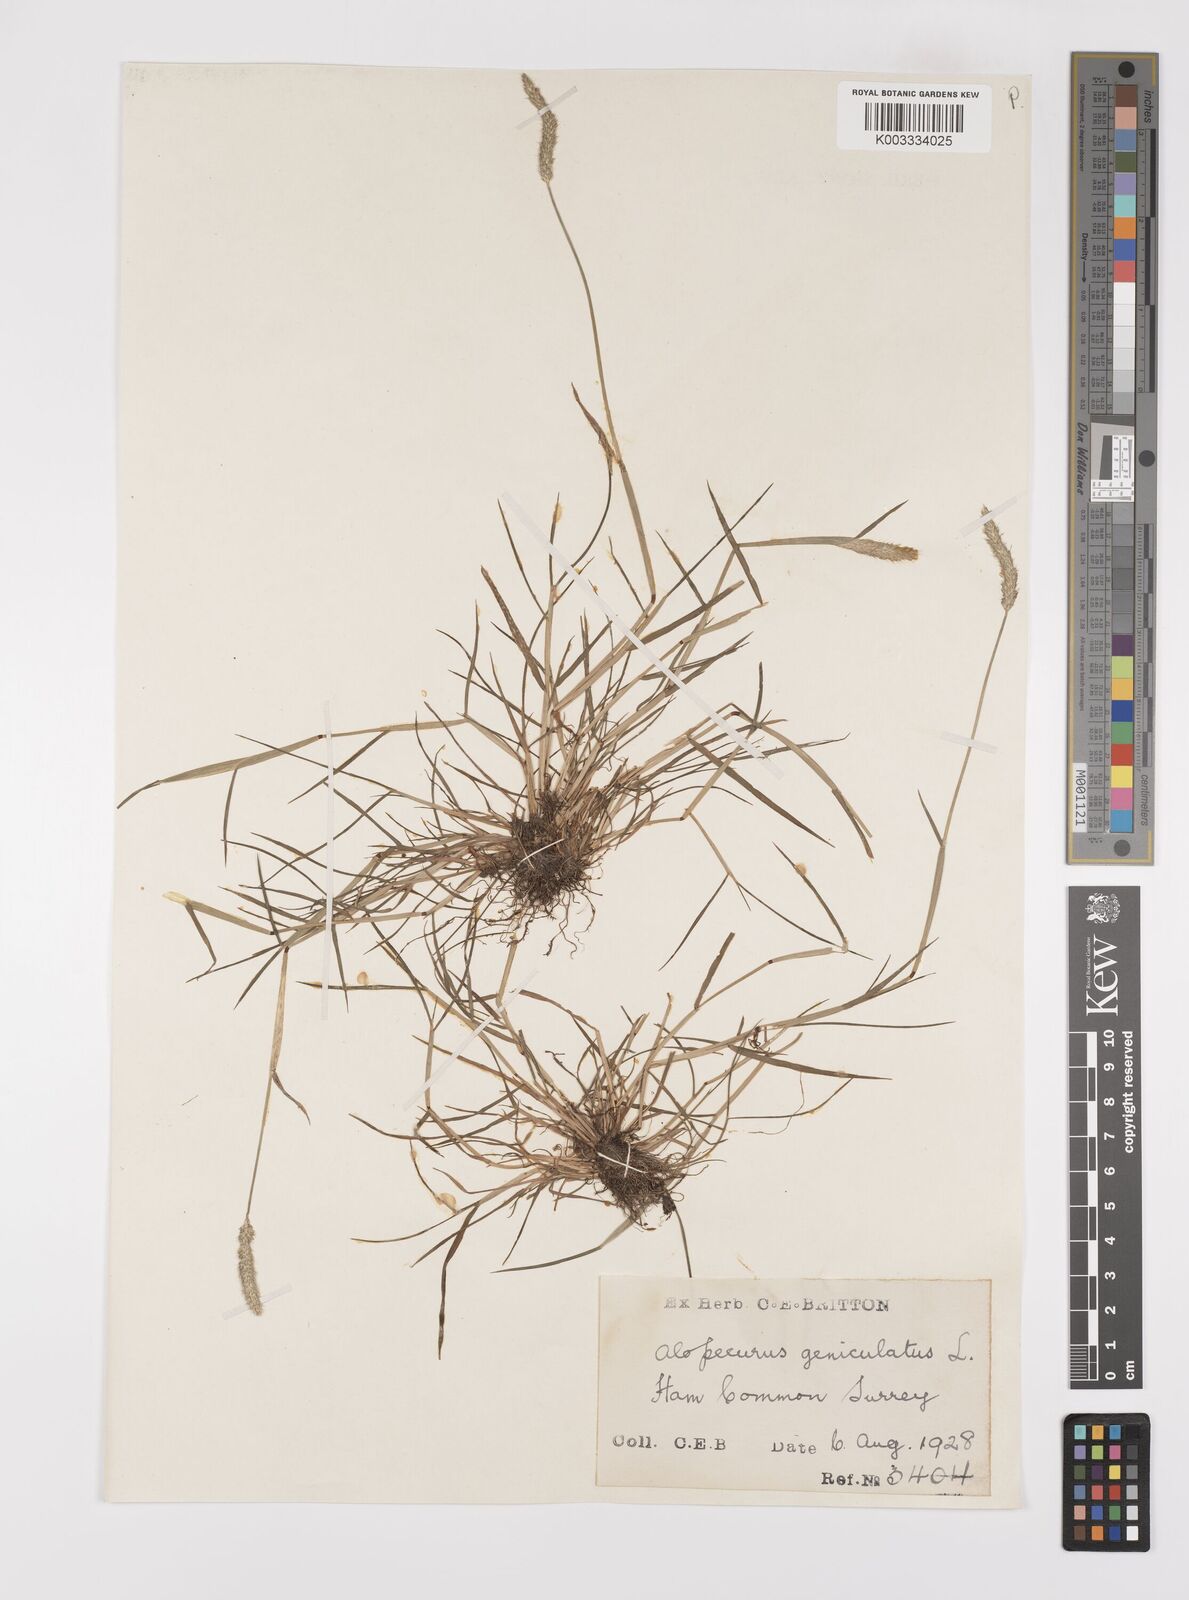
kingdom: Plantae
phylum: Tracheophyta
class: Liliopsida
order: Poales
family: Poaceae
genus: Alopecurus
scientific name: Alopecurus geniculatus
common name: Water foxtail
